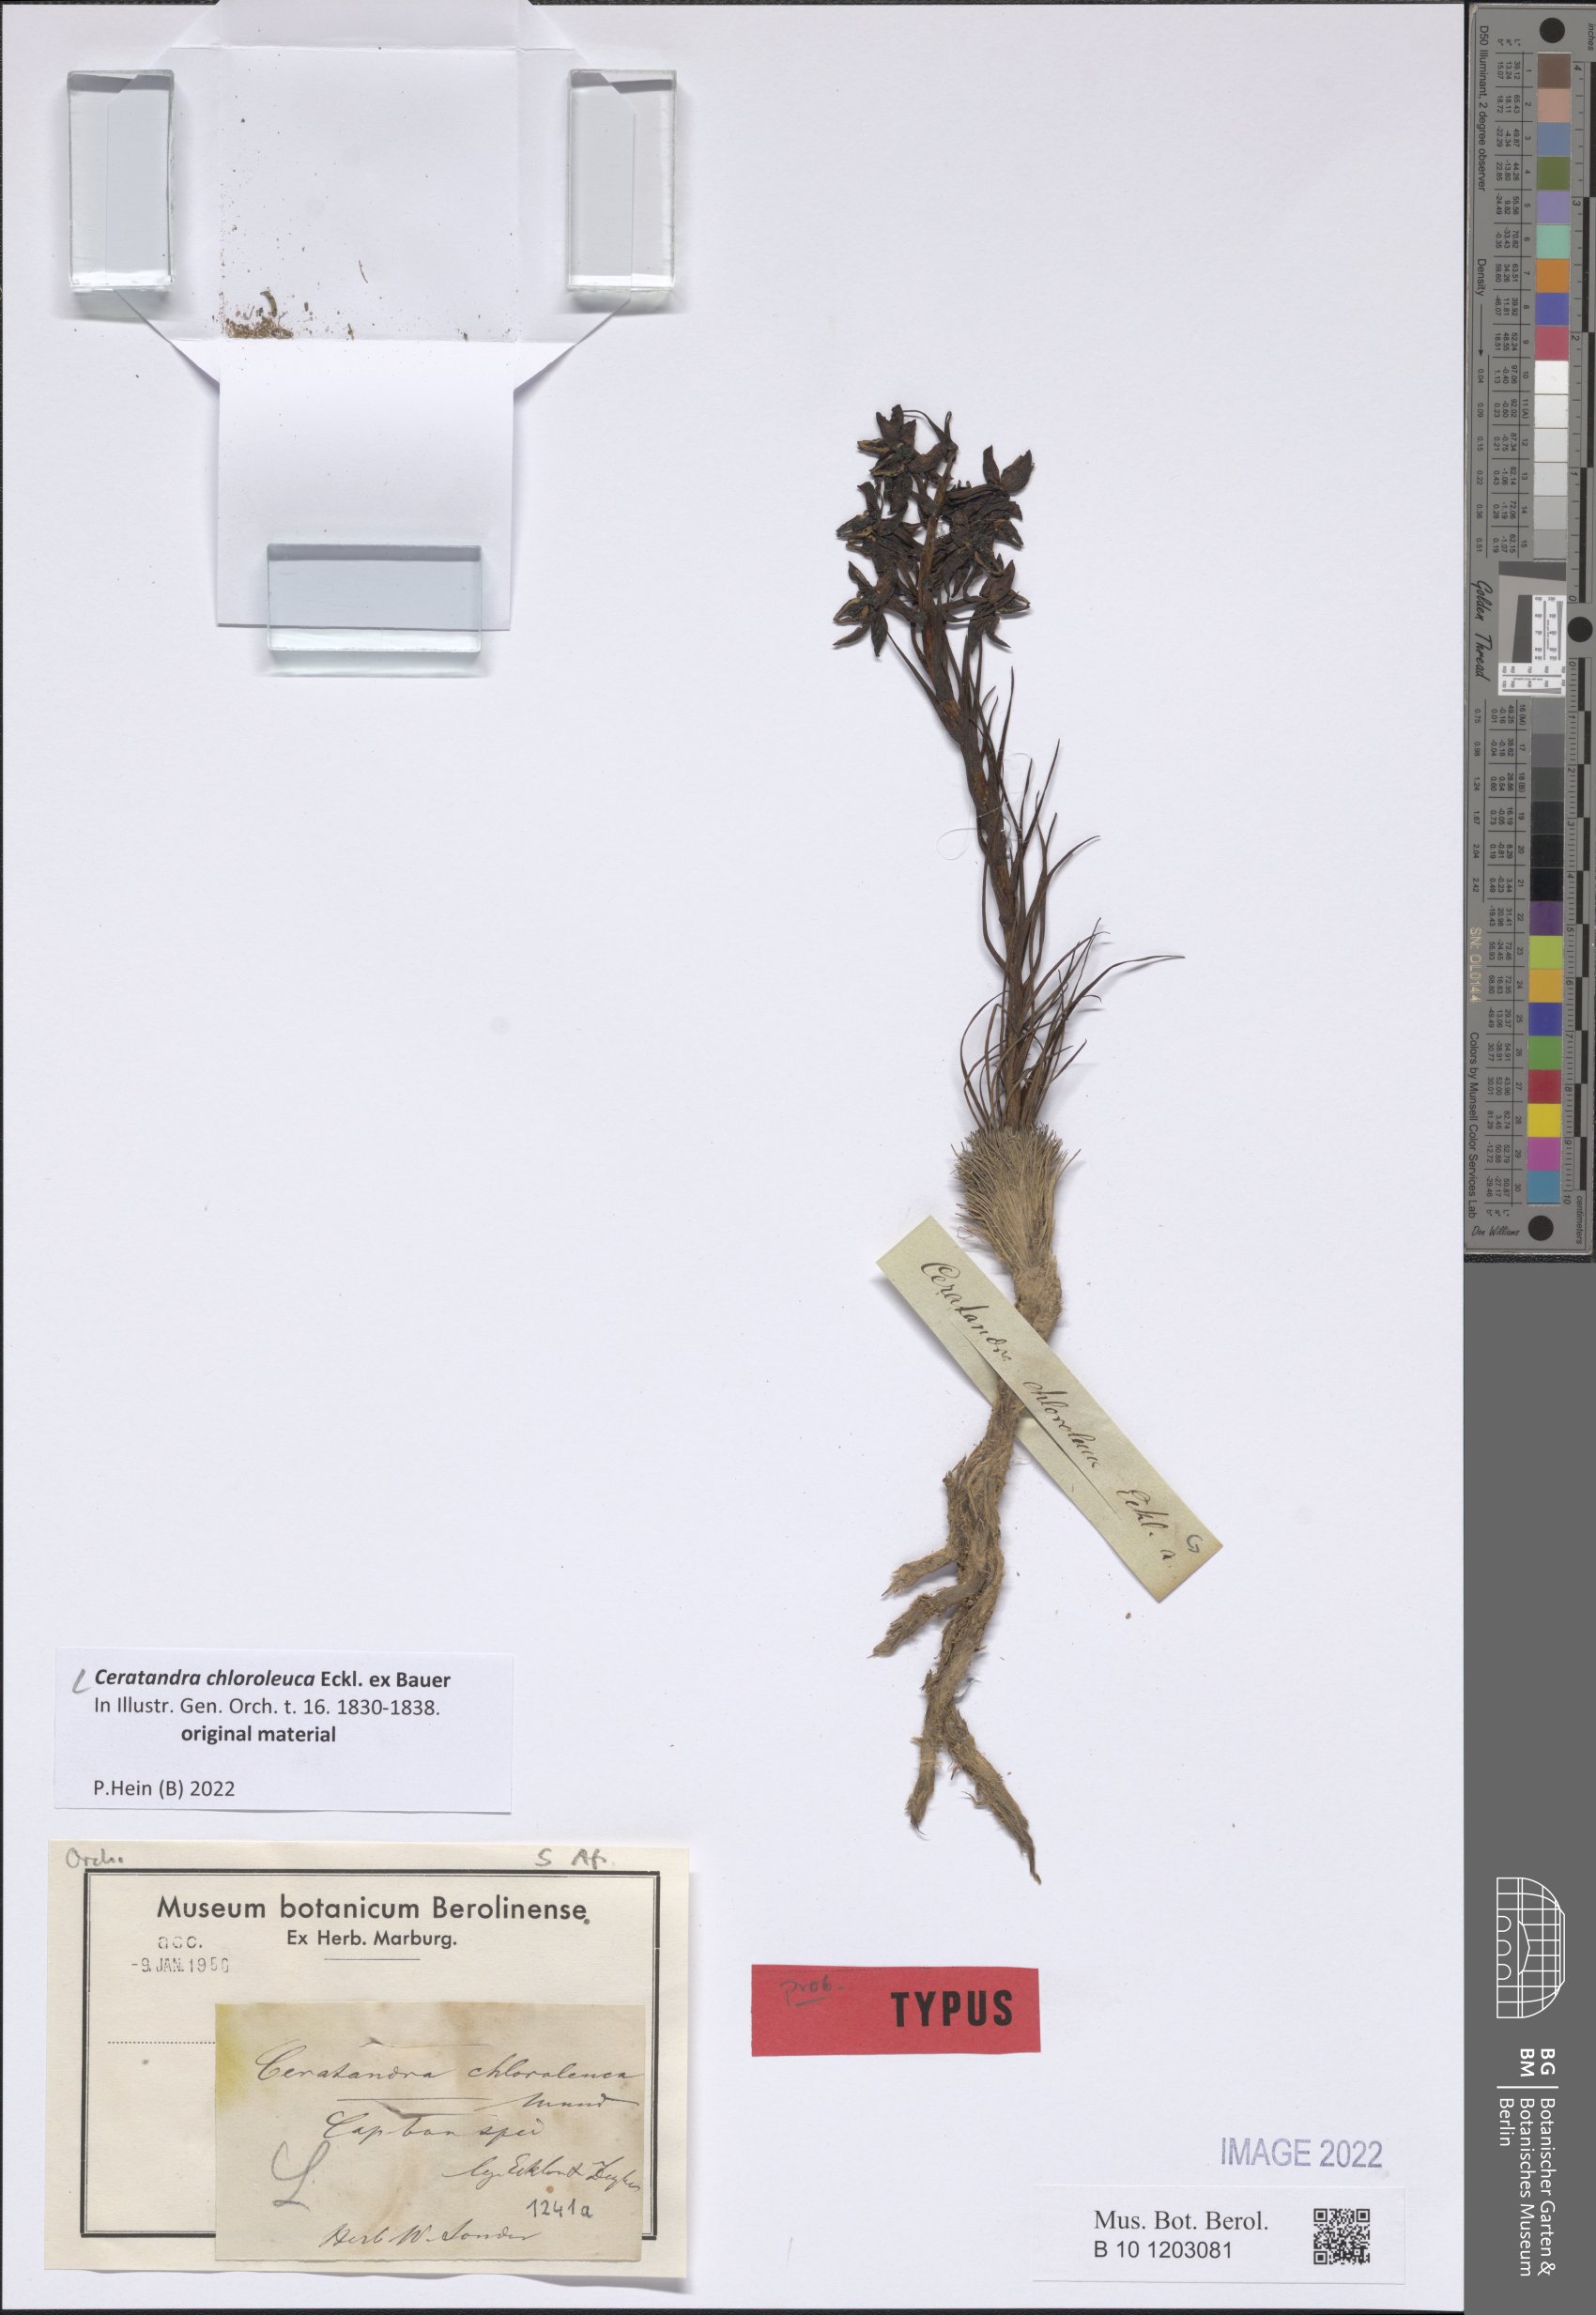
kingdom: Plantae
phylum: Tracheophyta
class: Liliopsida
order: Asparagales
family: Orchidaceae
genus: Ceratandra
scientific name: Ceratandra atrata
